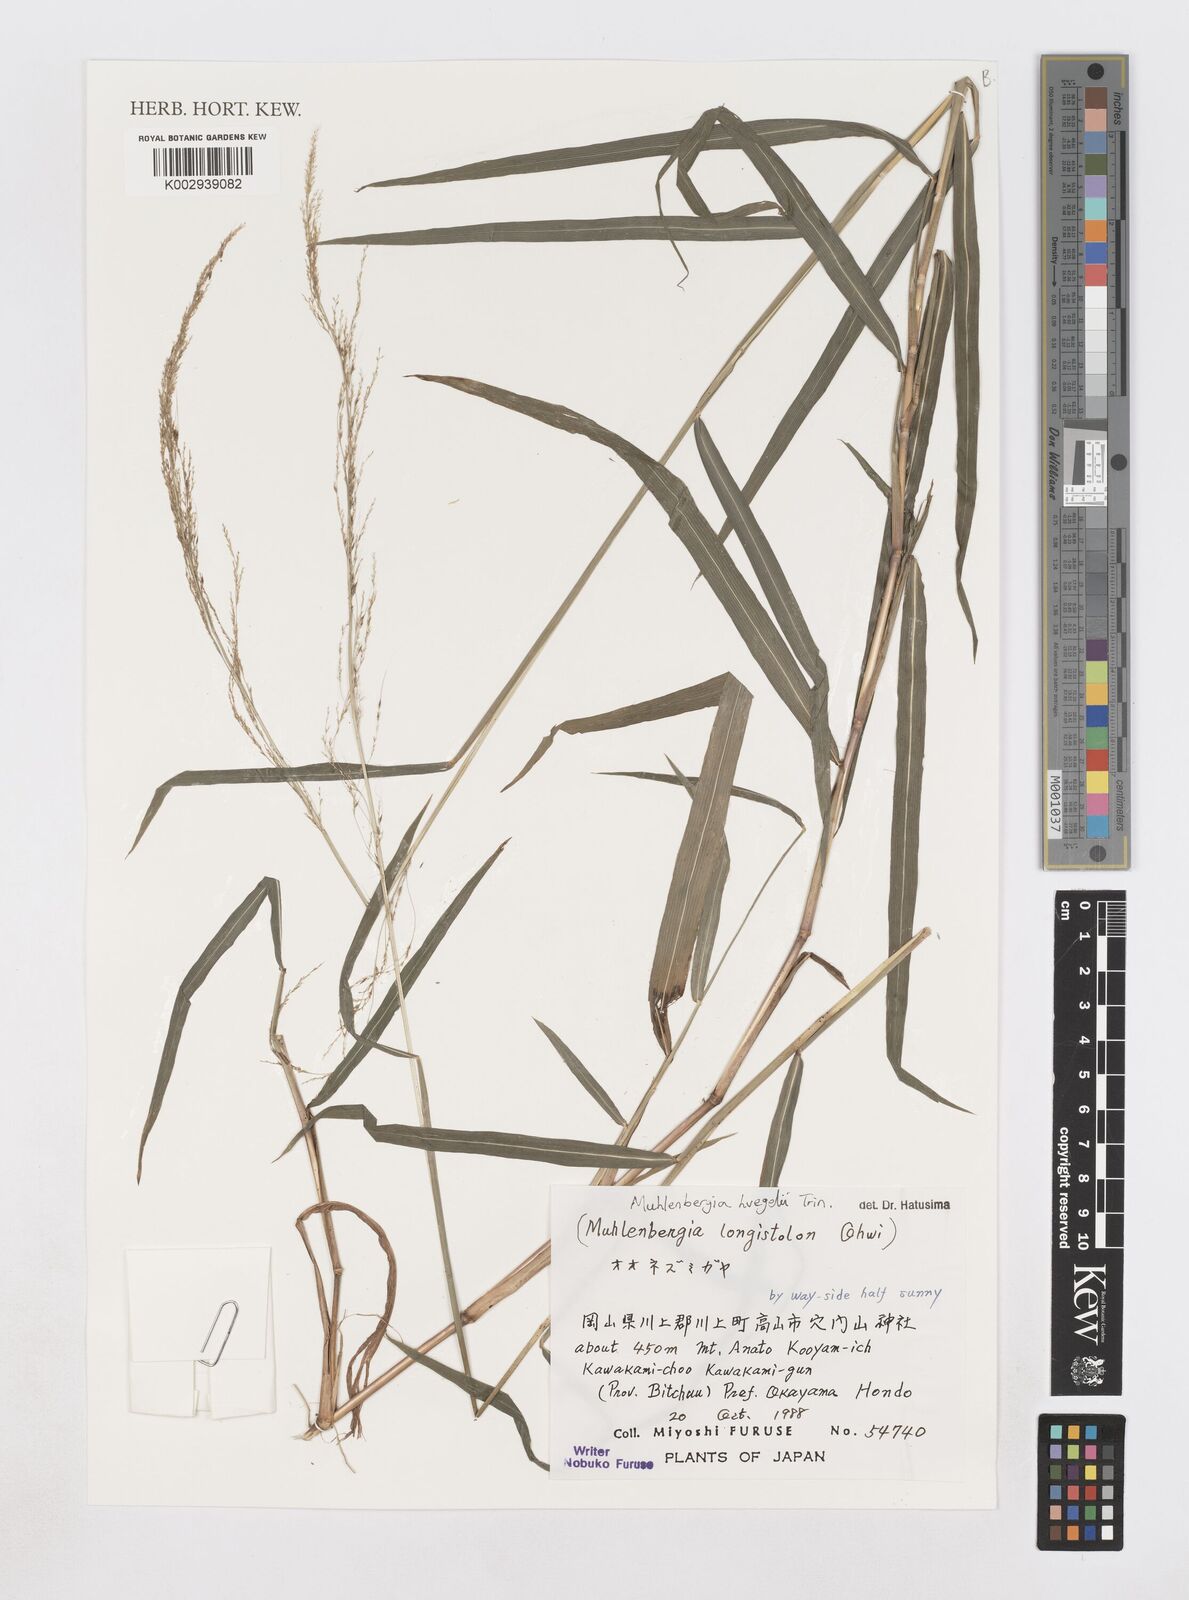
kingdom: Plantae
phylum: Tracheophyta
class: Liliopsida
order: Poales
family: Poaceae
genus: Muhlenbergia
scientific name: Muhlenbergia huegelii
